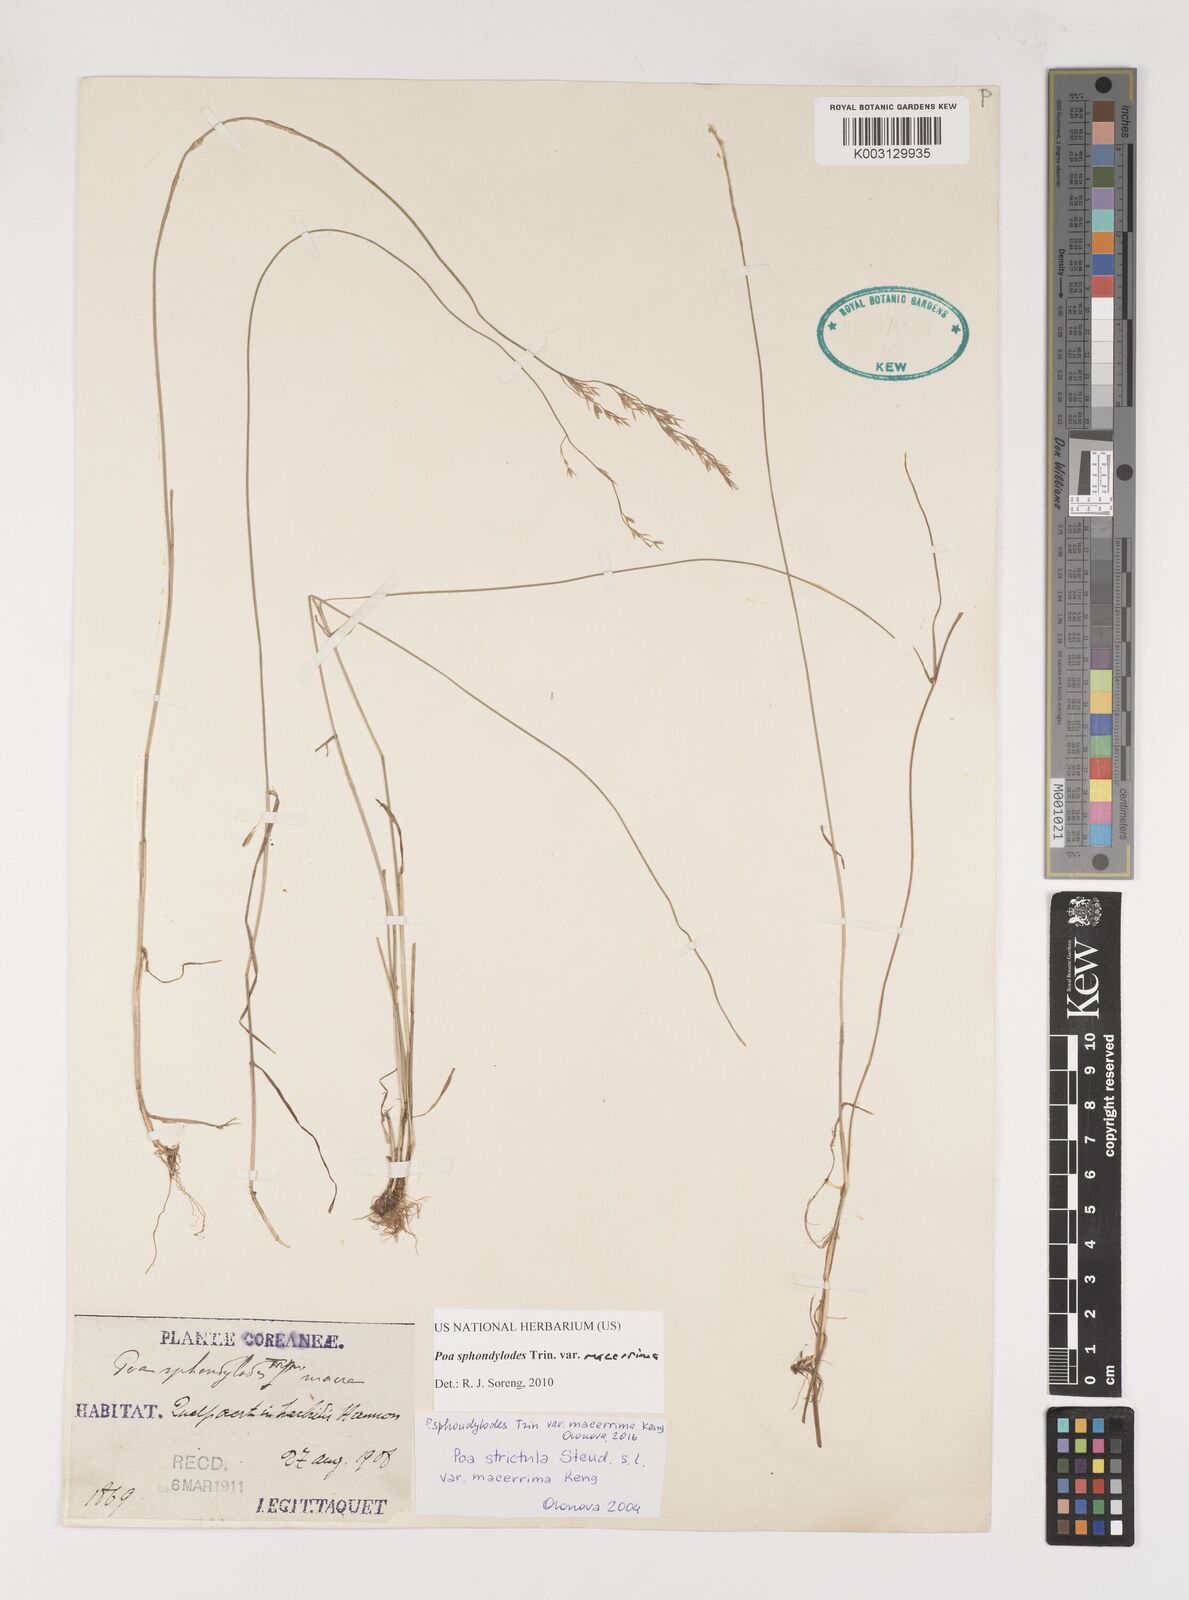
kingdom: Plantae
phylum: Tracheophyta
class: Liliopsida
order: Poales
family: Poaceae
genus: Poa
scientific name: Poa sphondylodes
